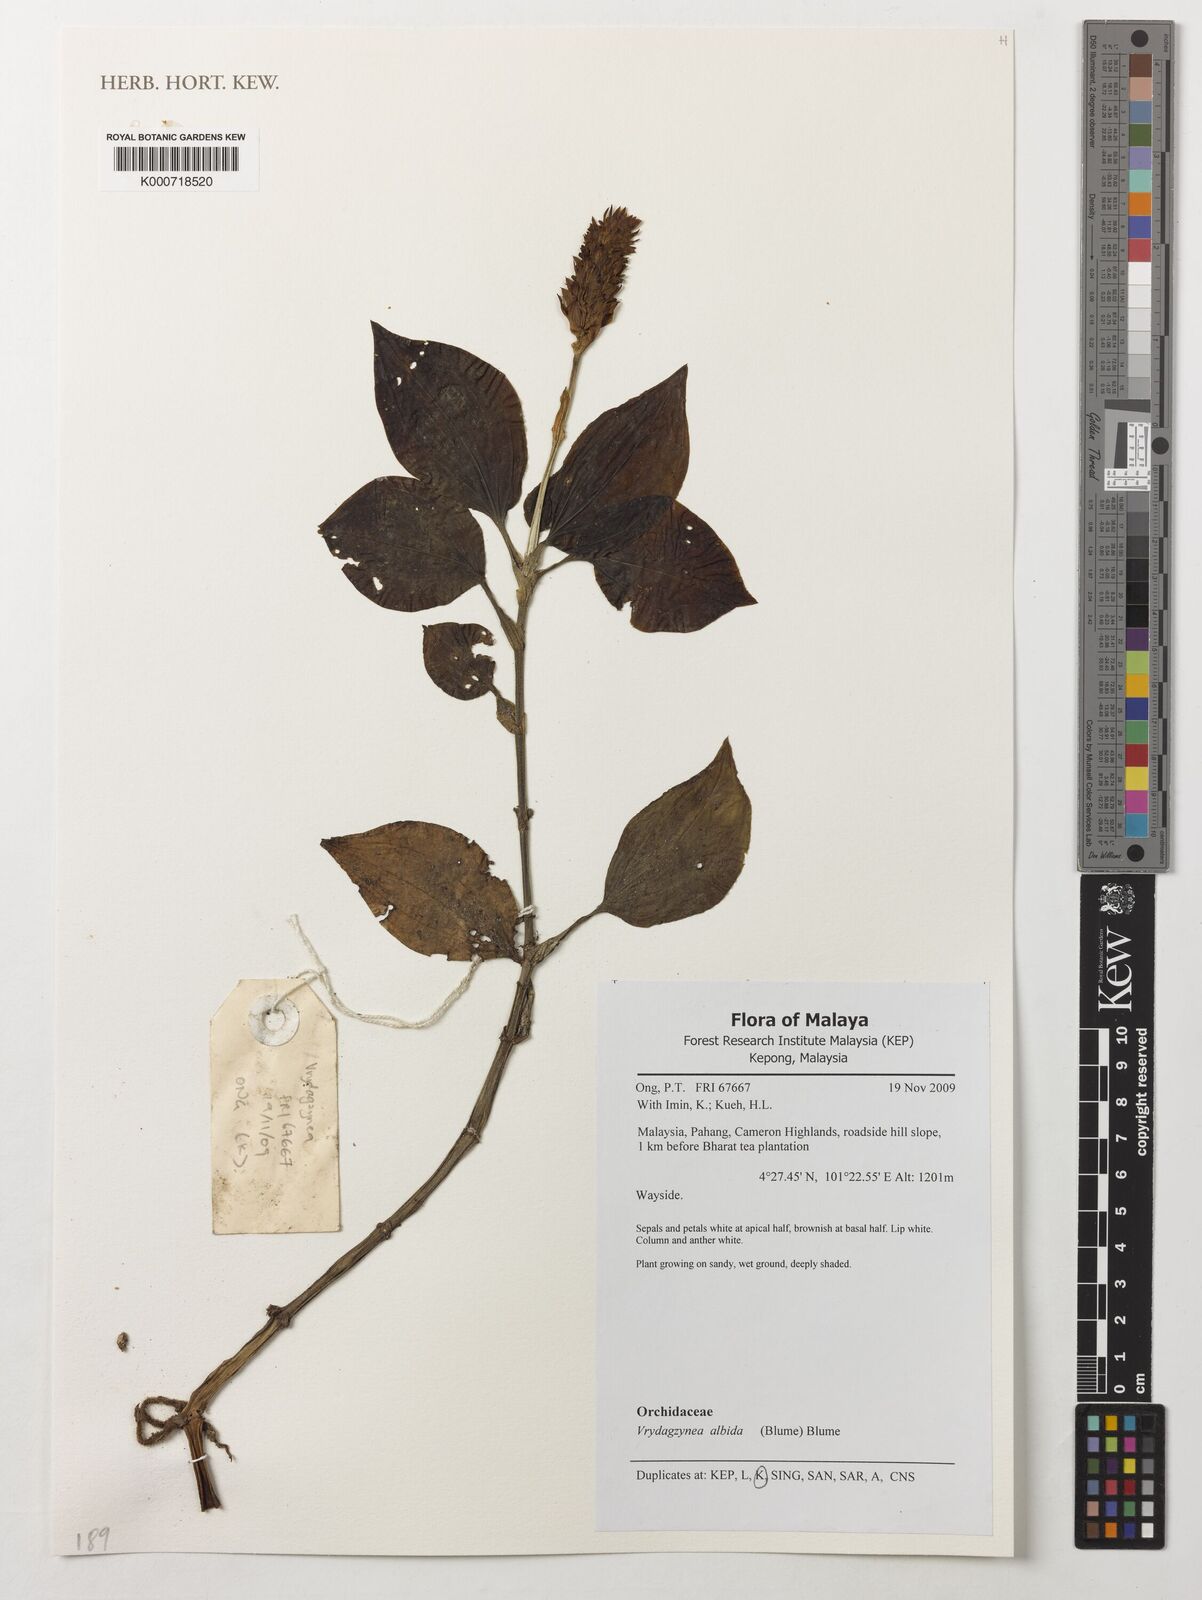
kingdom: Plantae
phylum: Tracheophyta
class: Liliopsida
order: Asparagales
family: Orchidaceae
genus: Vrydagzynea
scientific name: Vrydagzynea albida
